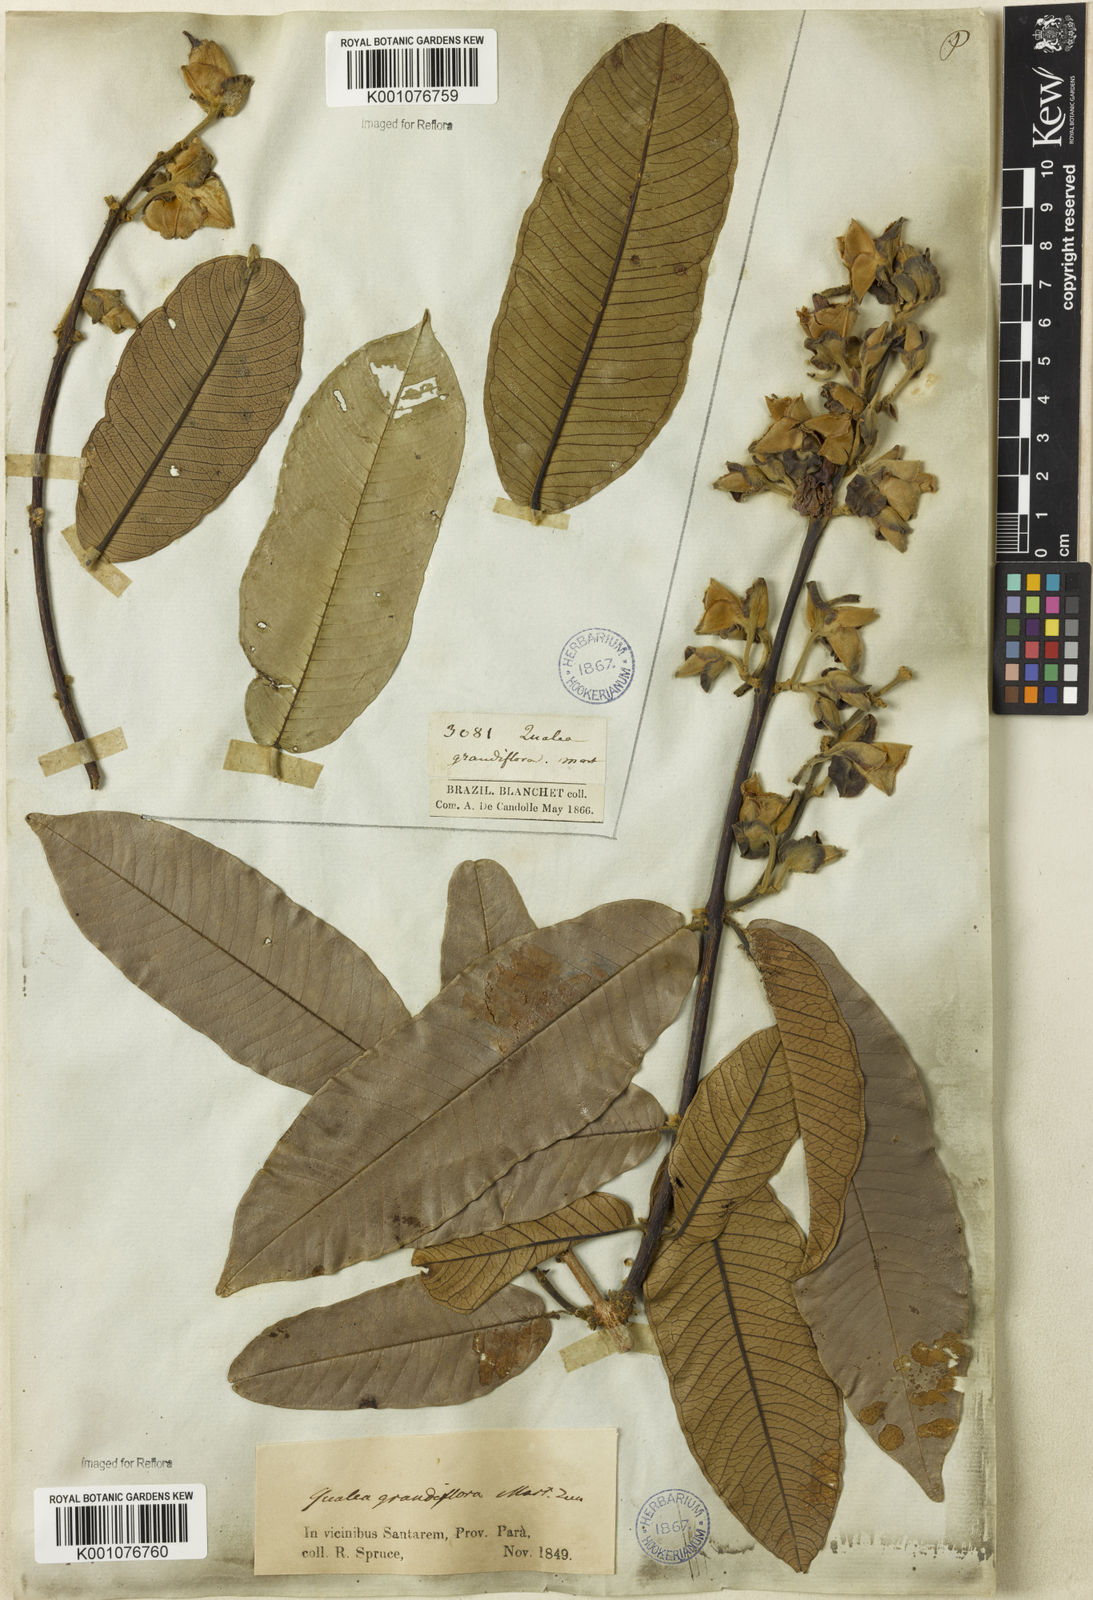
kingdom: Plantae
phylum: Tracheophyta
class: Magnoliopsida
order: Myrtales
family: Vochysiaceae
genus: Qualea
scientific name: Qualea grandiflora
